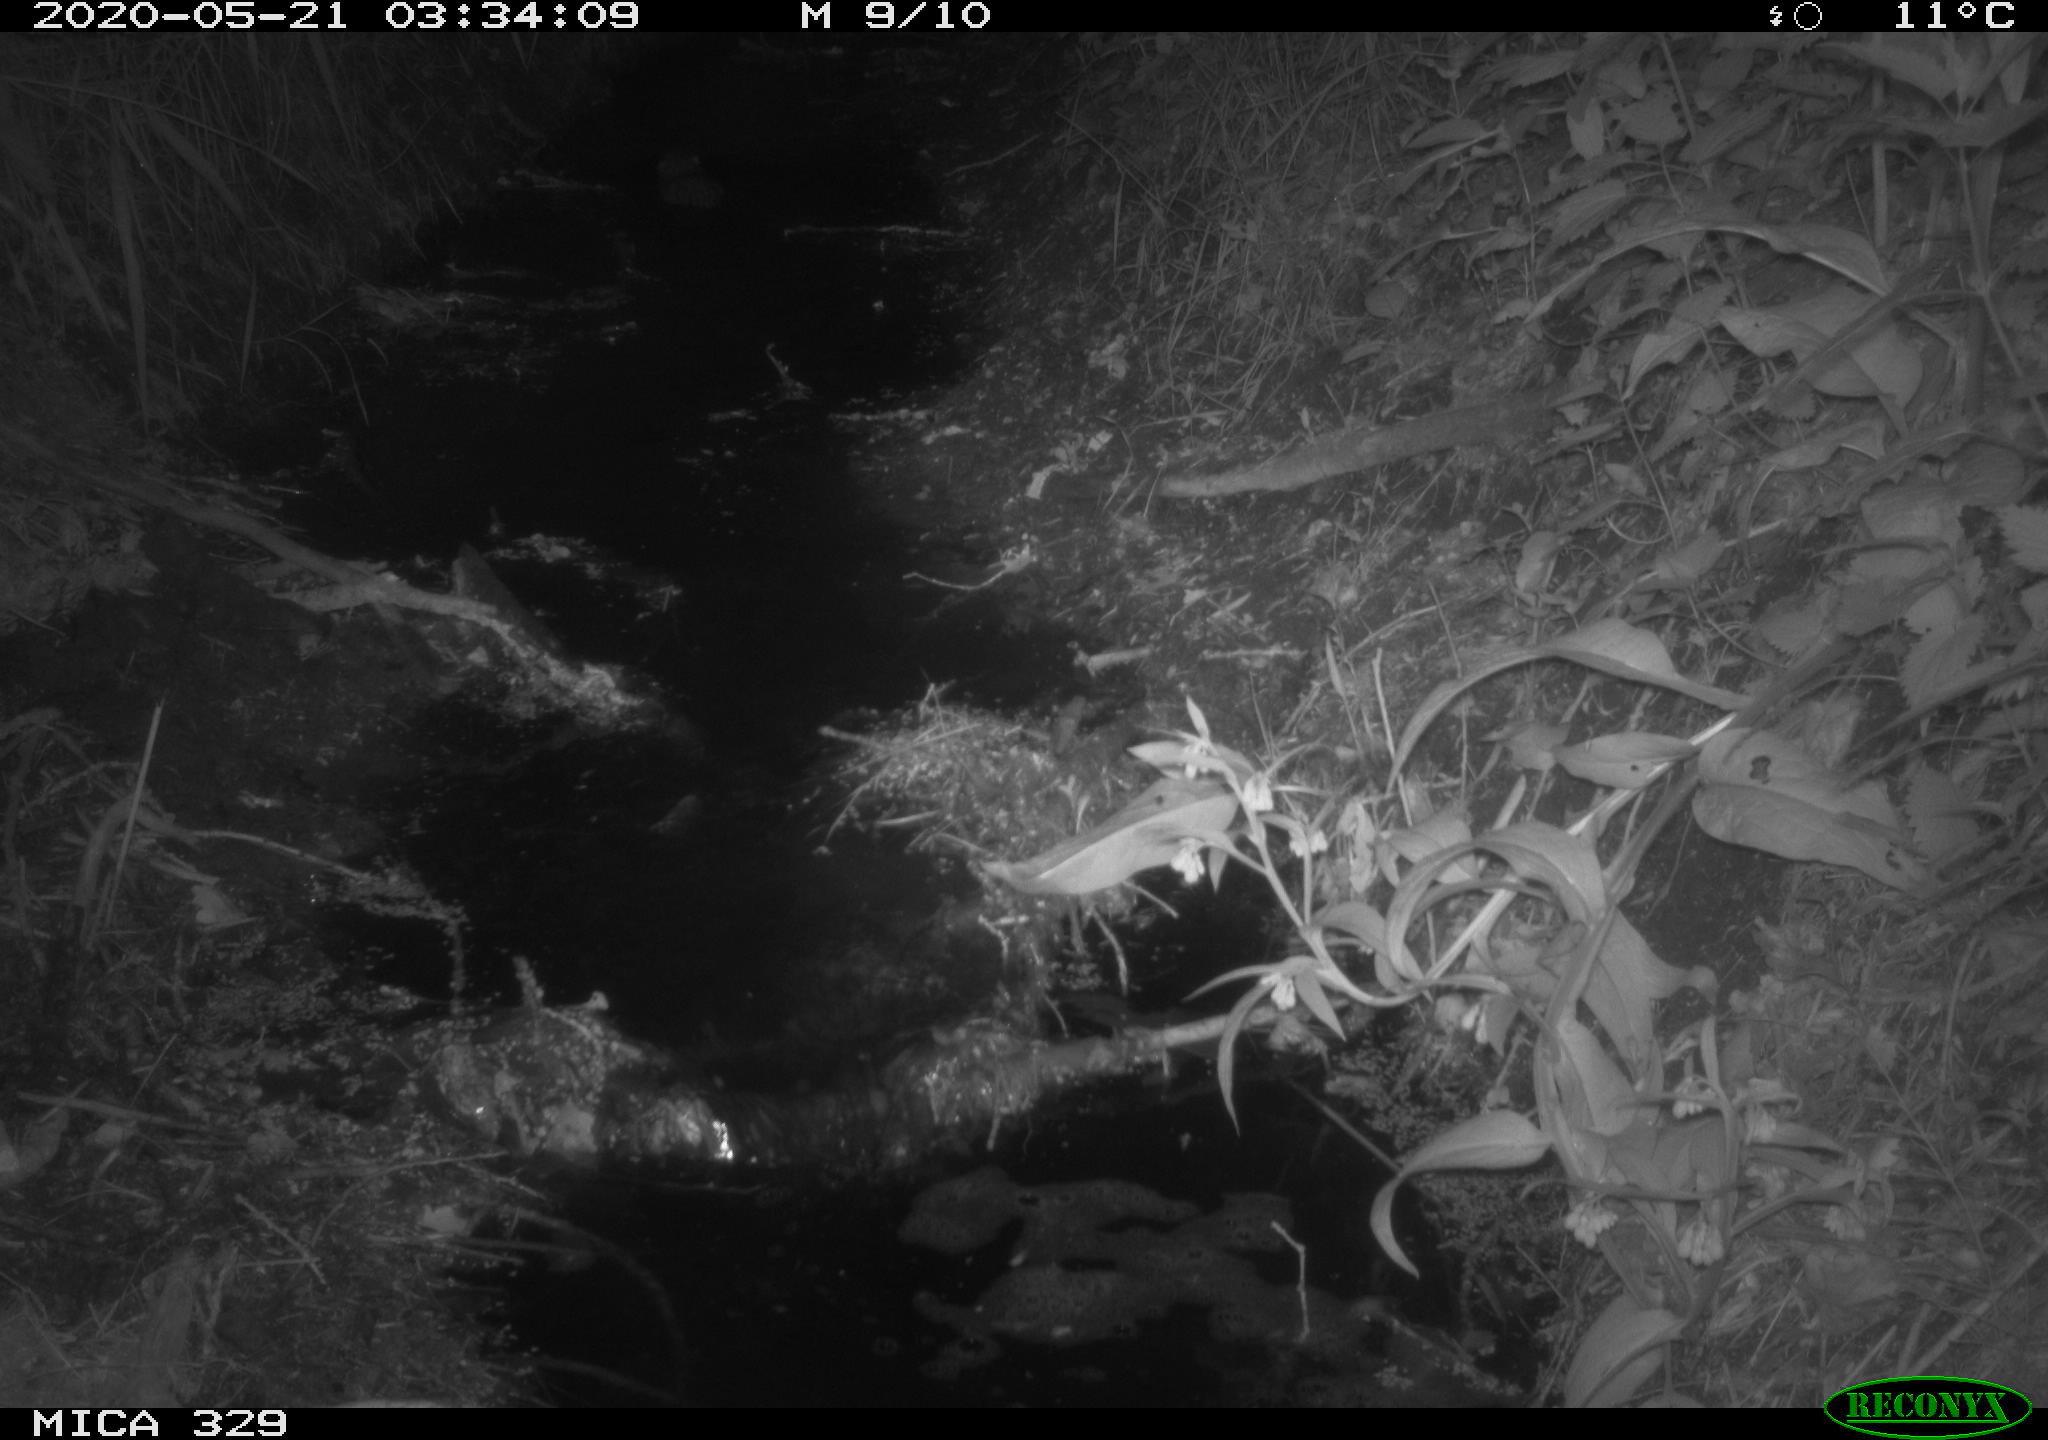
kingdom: Animalia
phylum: Chordata
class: Mammalia
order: Rodentia
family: Myocastoridae
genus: Myocastor
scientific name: Myocastor coypus
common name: Coypu
